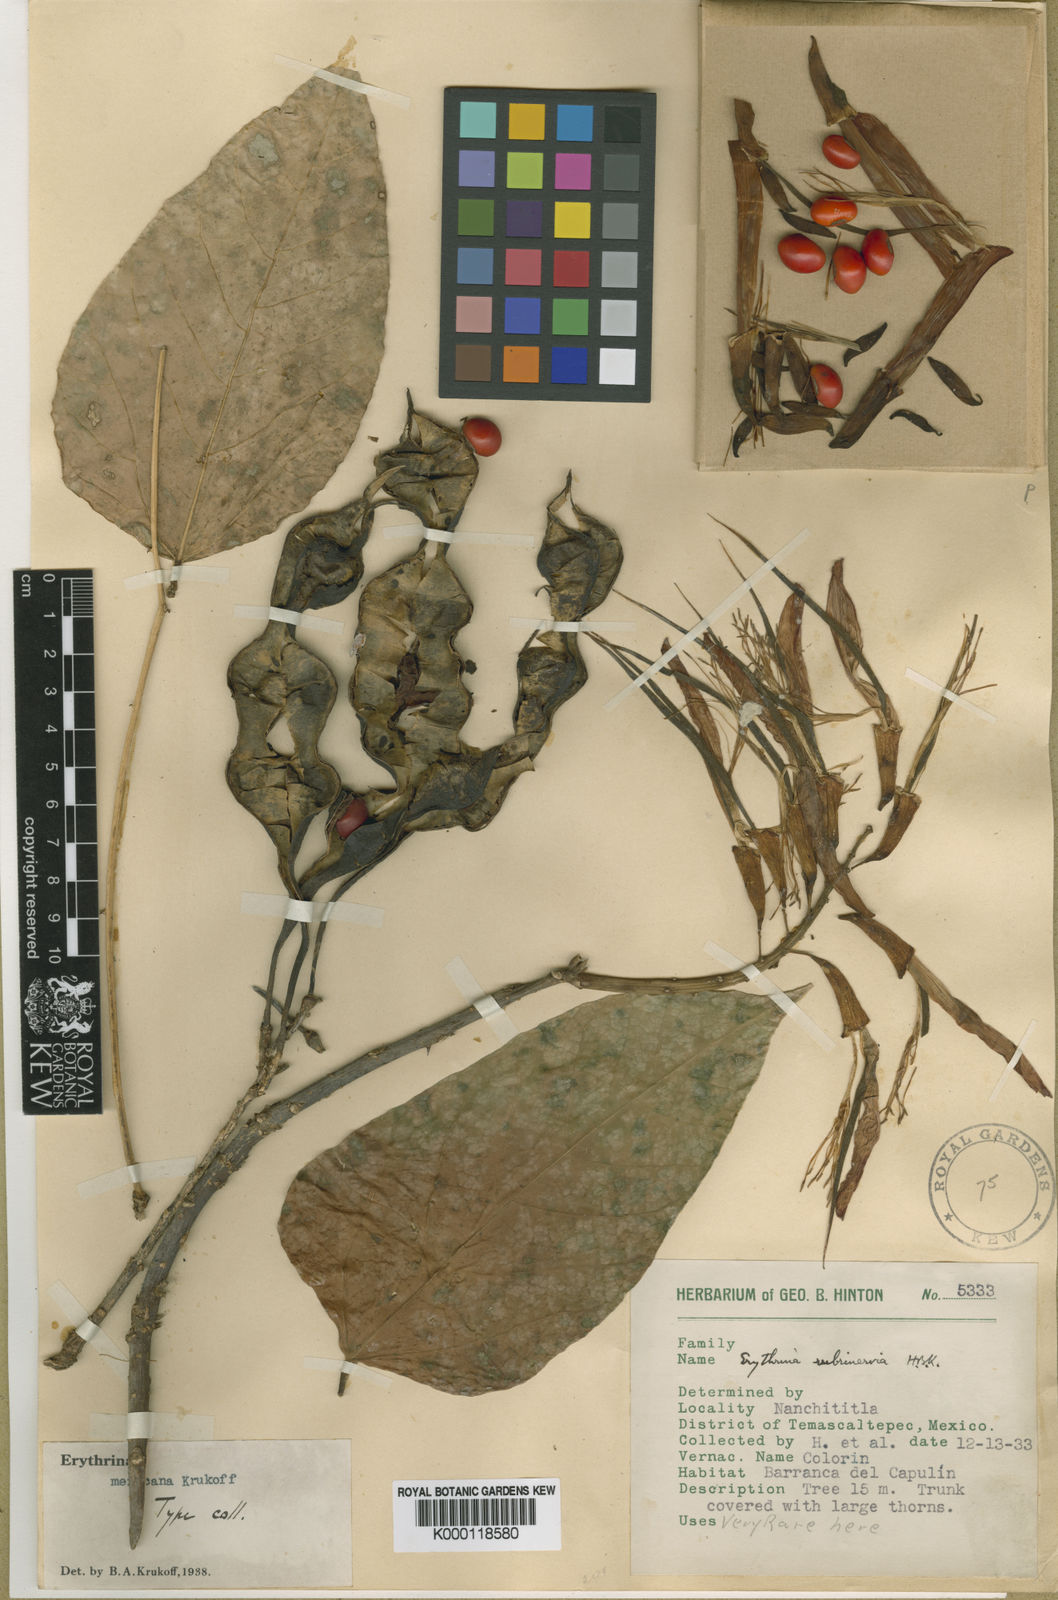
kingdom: Plantae
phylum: Tracheophyta
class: Magnoliopsida
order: Fabales
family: Fabaceae
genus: Erythrina
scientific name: Erythrina mexicana
